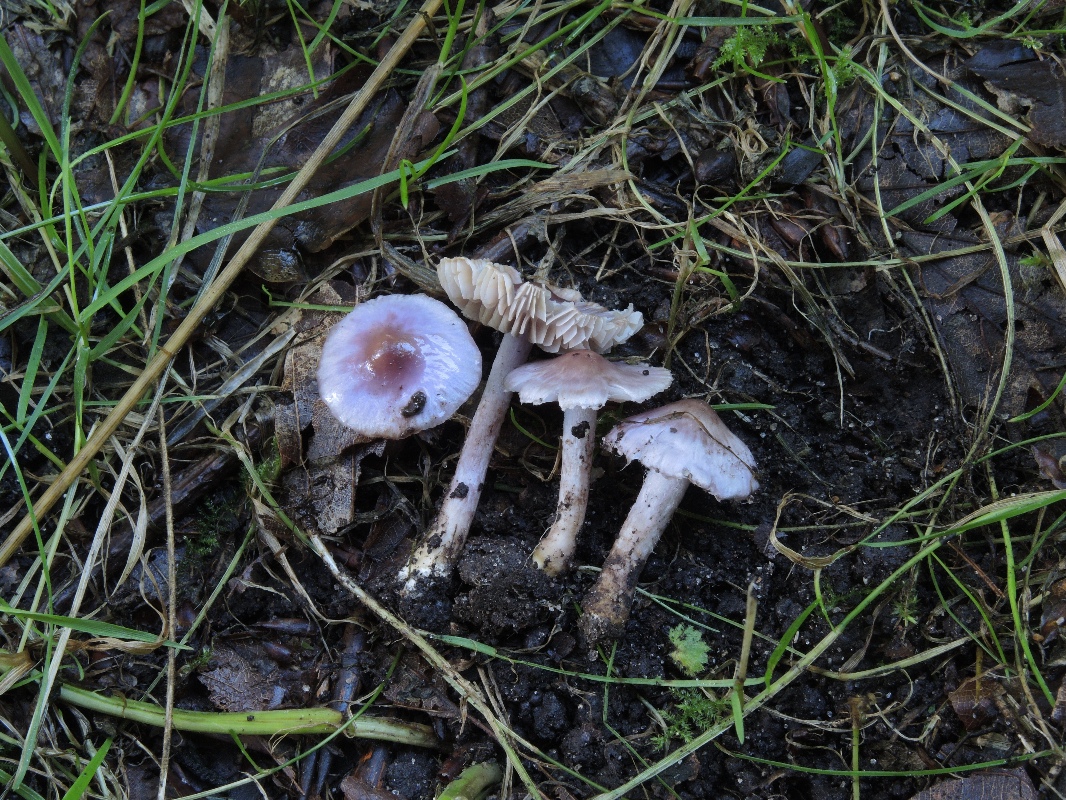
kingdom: Fungi
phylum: Basidiomycota
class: Agaricomycetes
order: Agaricales
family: Inocybaceae
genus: Inocybe
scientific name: Inocybe geophylla
